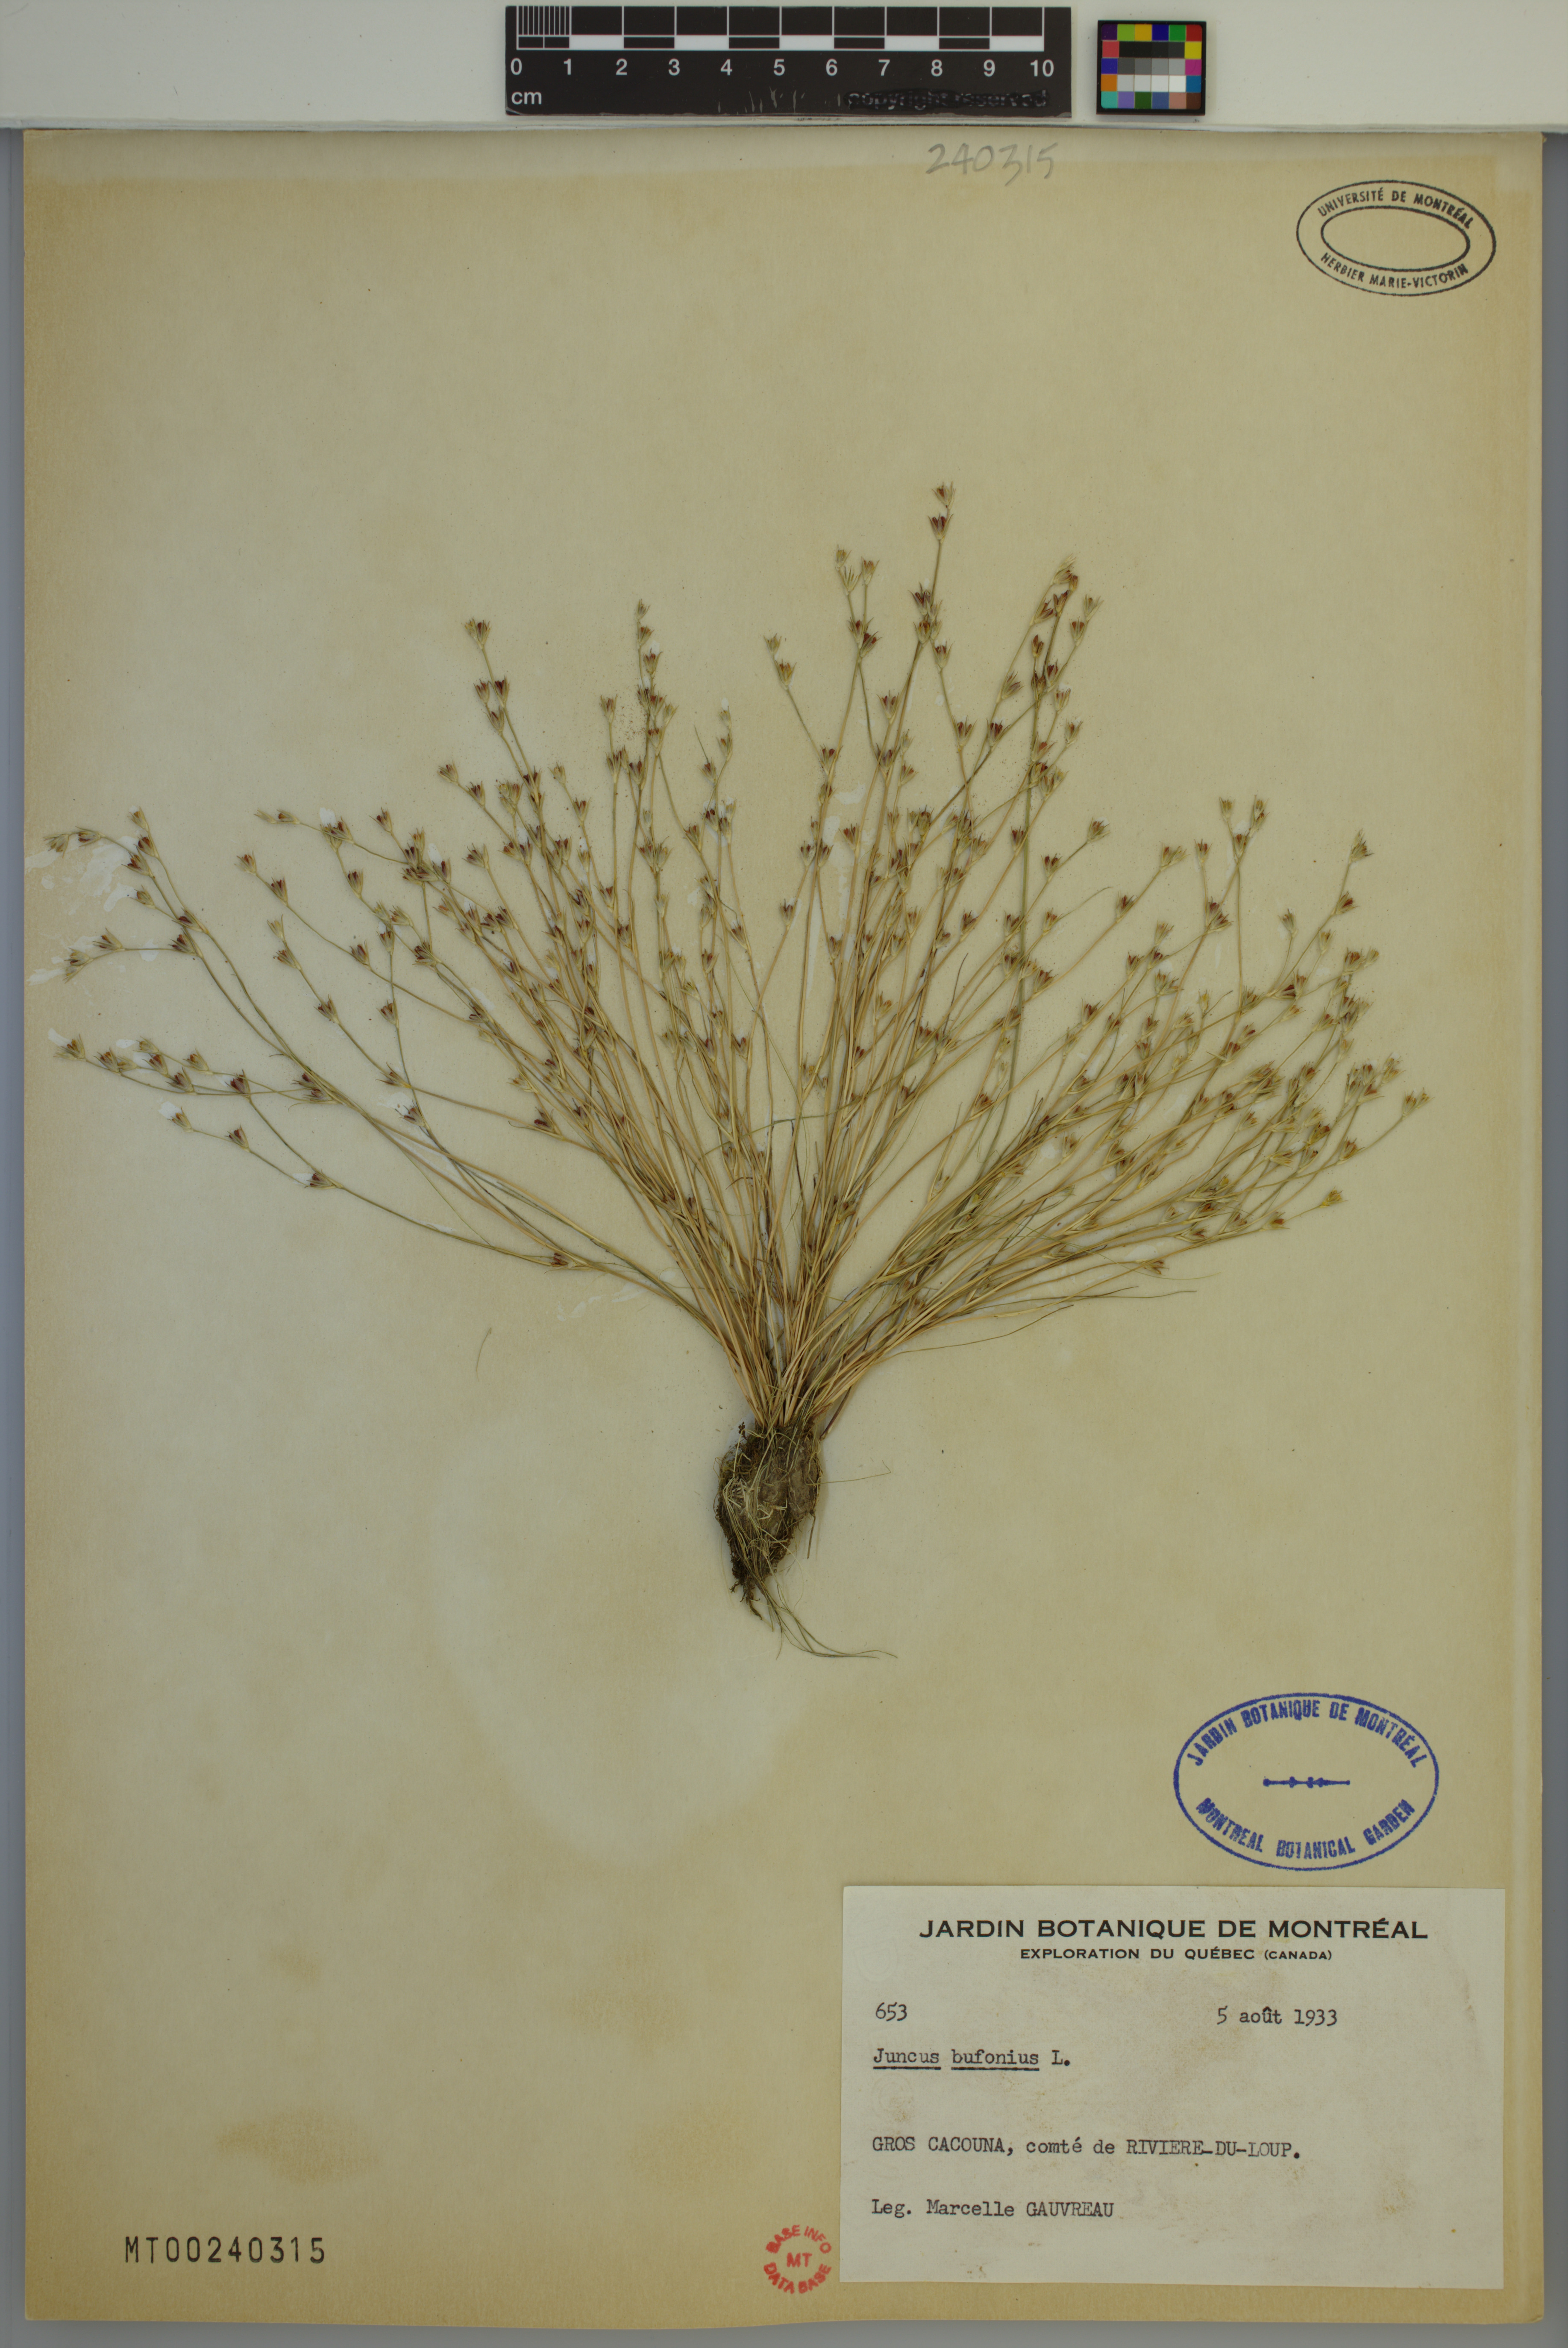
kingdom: Plantae
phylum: Tracheophyta
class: Liliopsida
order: Poales
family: Juncaceae
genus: Juncus
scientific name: Juncus bufonius
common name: Toad rush
